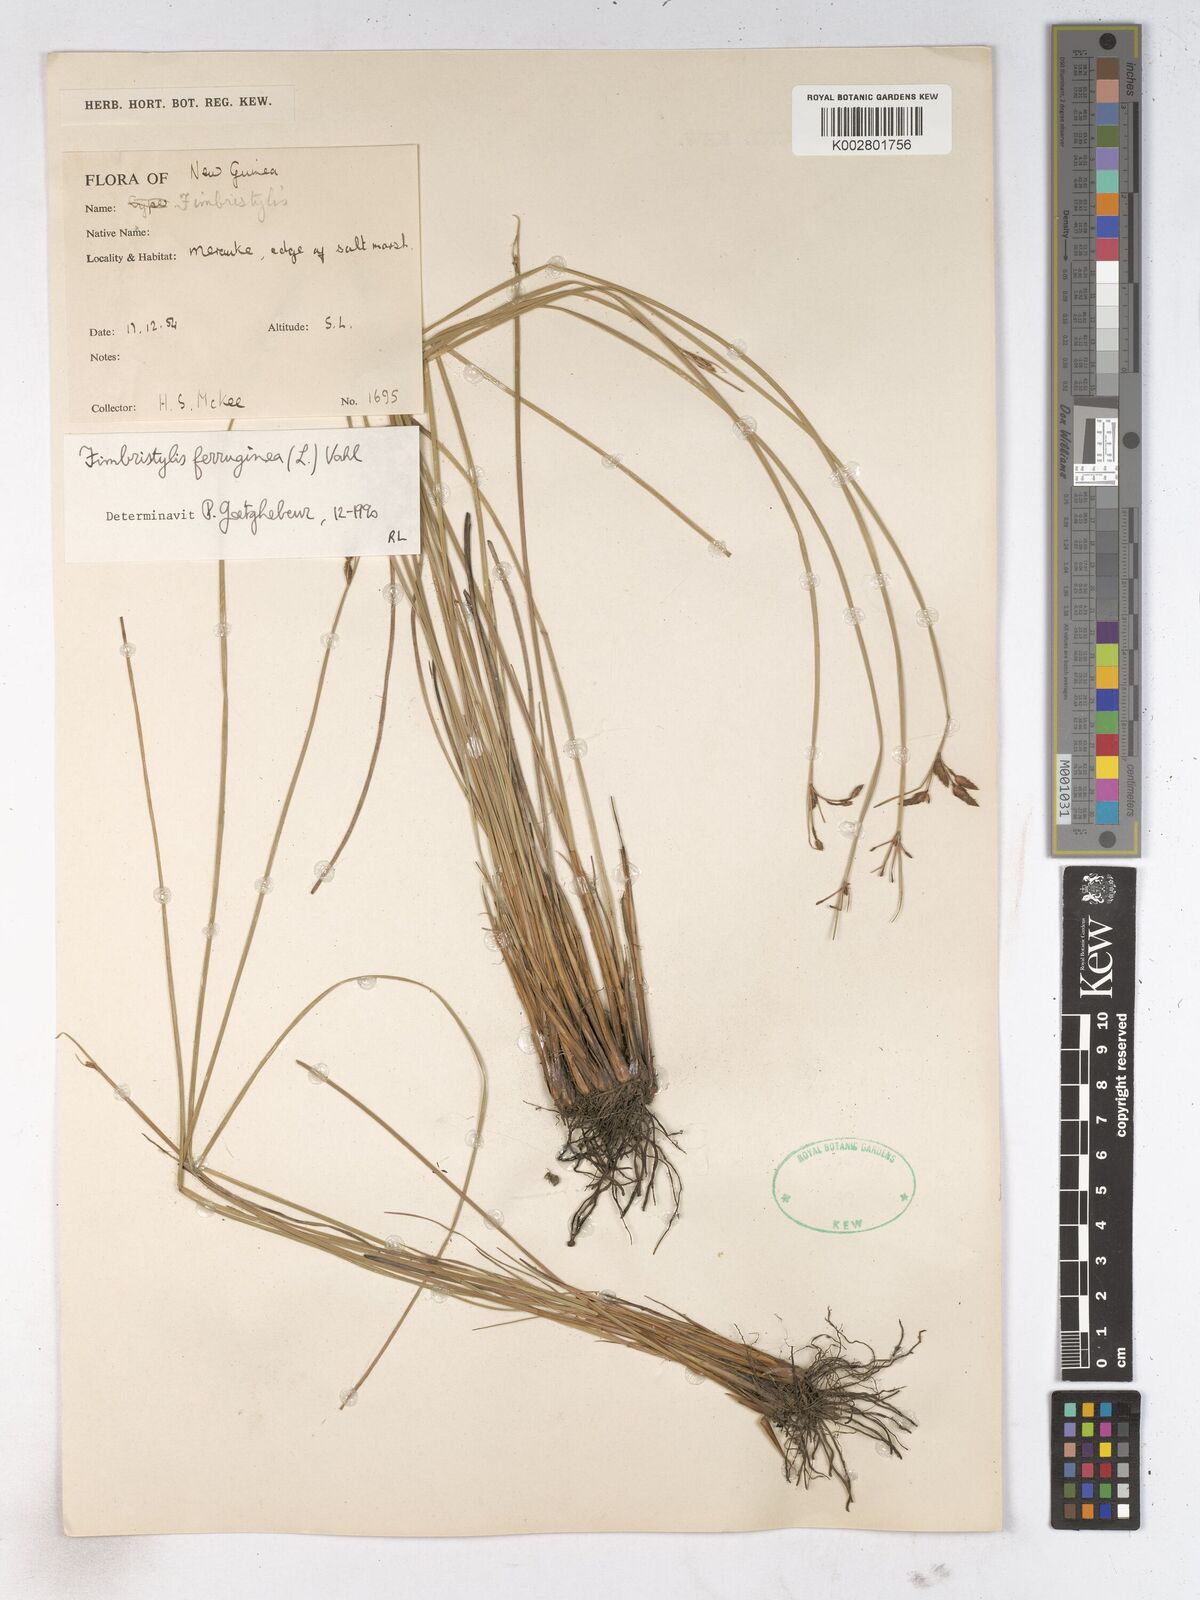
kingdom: Plantae
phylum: Tracheophyta
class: Liliopsida
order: Poales
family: Cyperaceae
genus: Fimbristylis
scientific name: Fimbristylis ferruginea
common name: West indian fimbry
